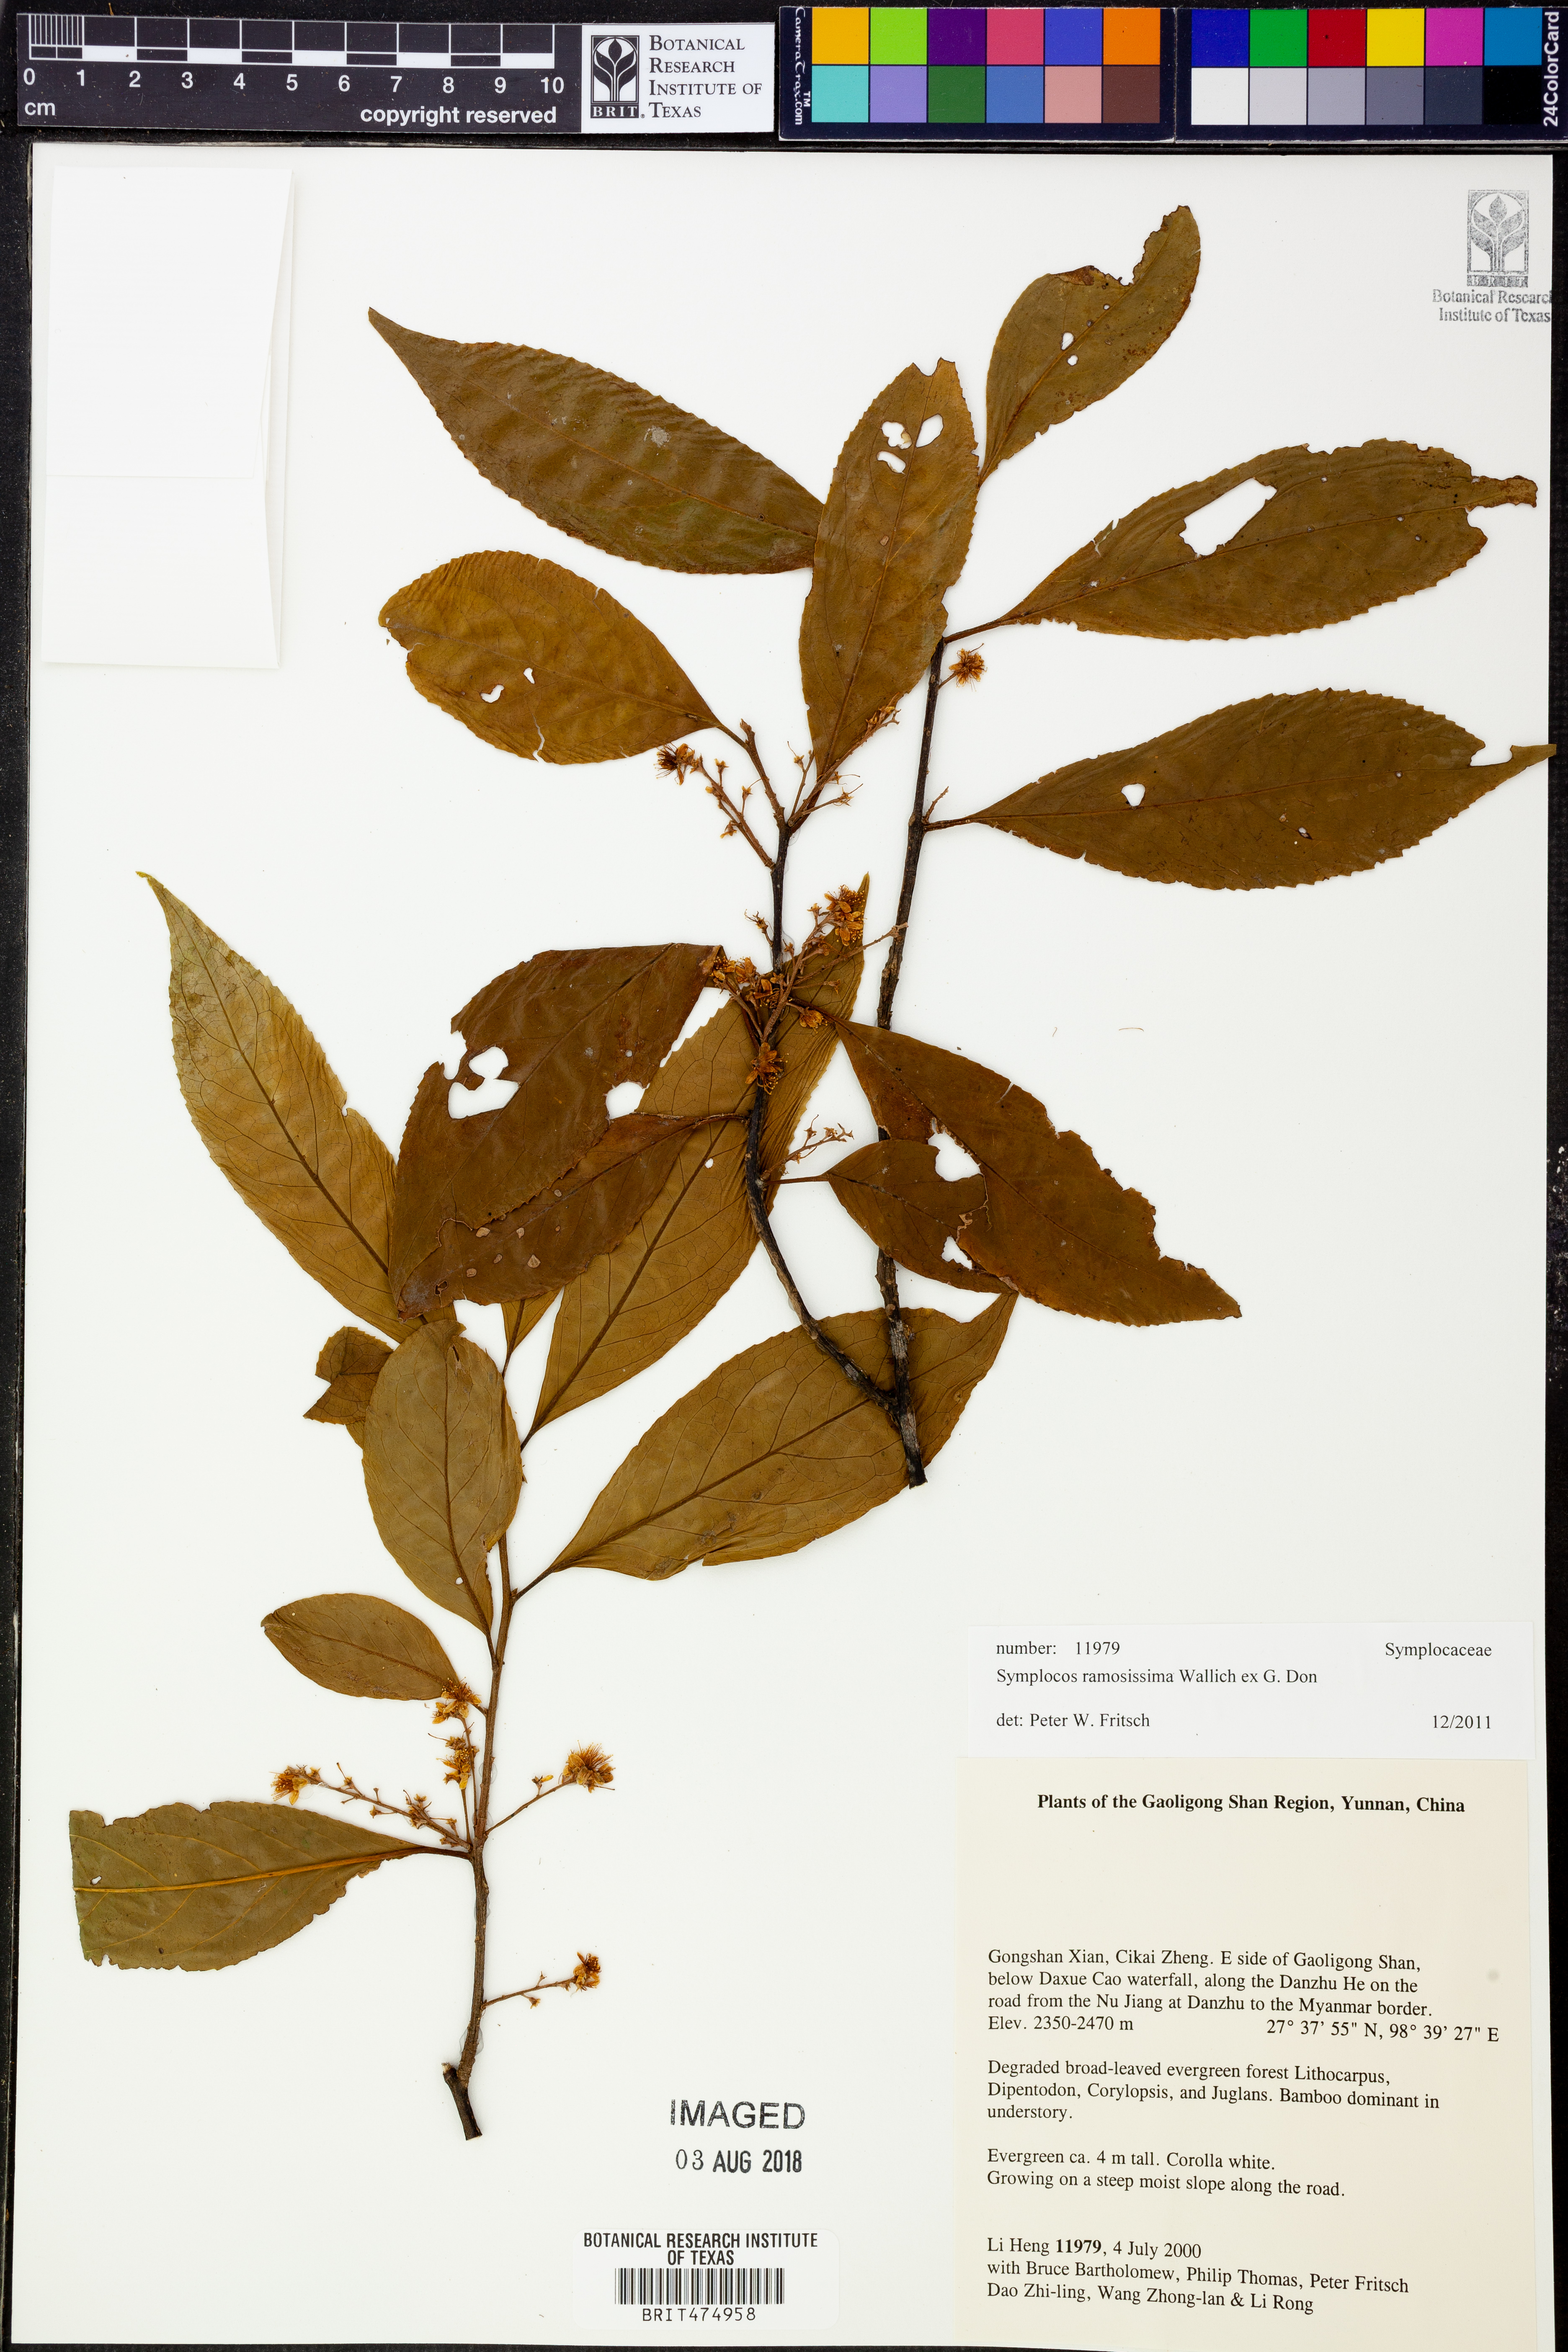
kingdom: Plantae
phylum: Tracheophyta
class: Magnoliopsida
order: Ericales
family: Symplocaceae
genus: Symplocos
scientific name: Symplocos ramosissima
